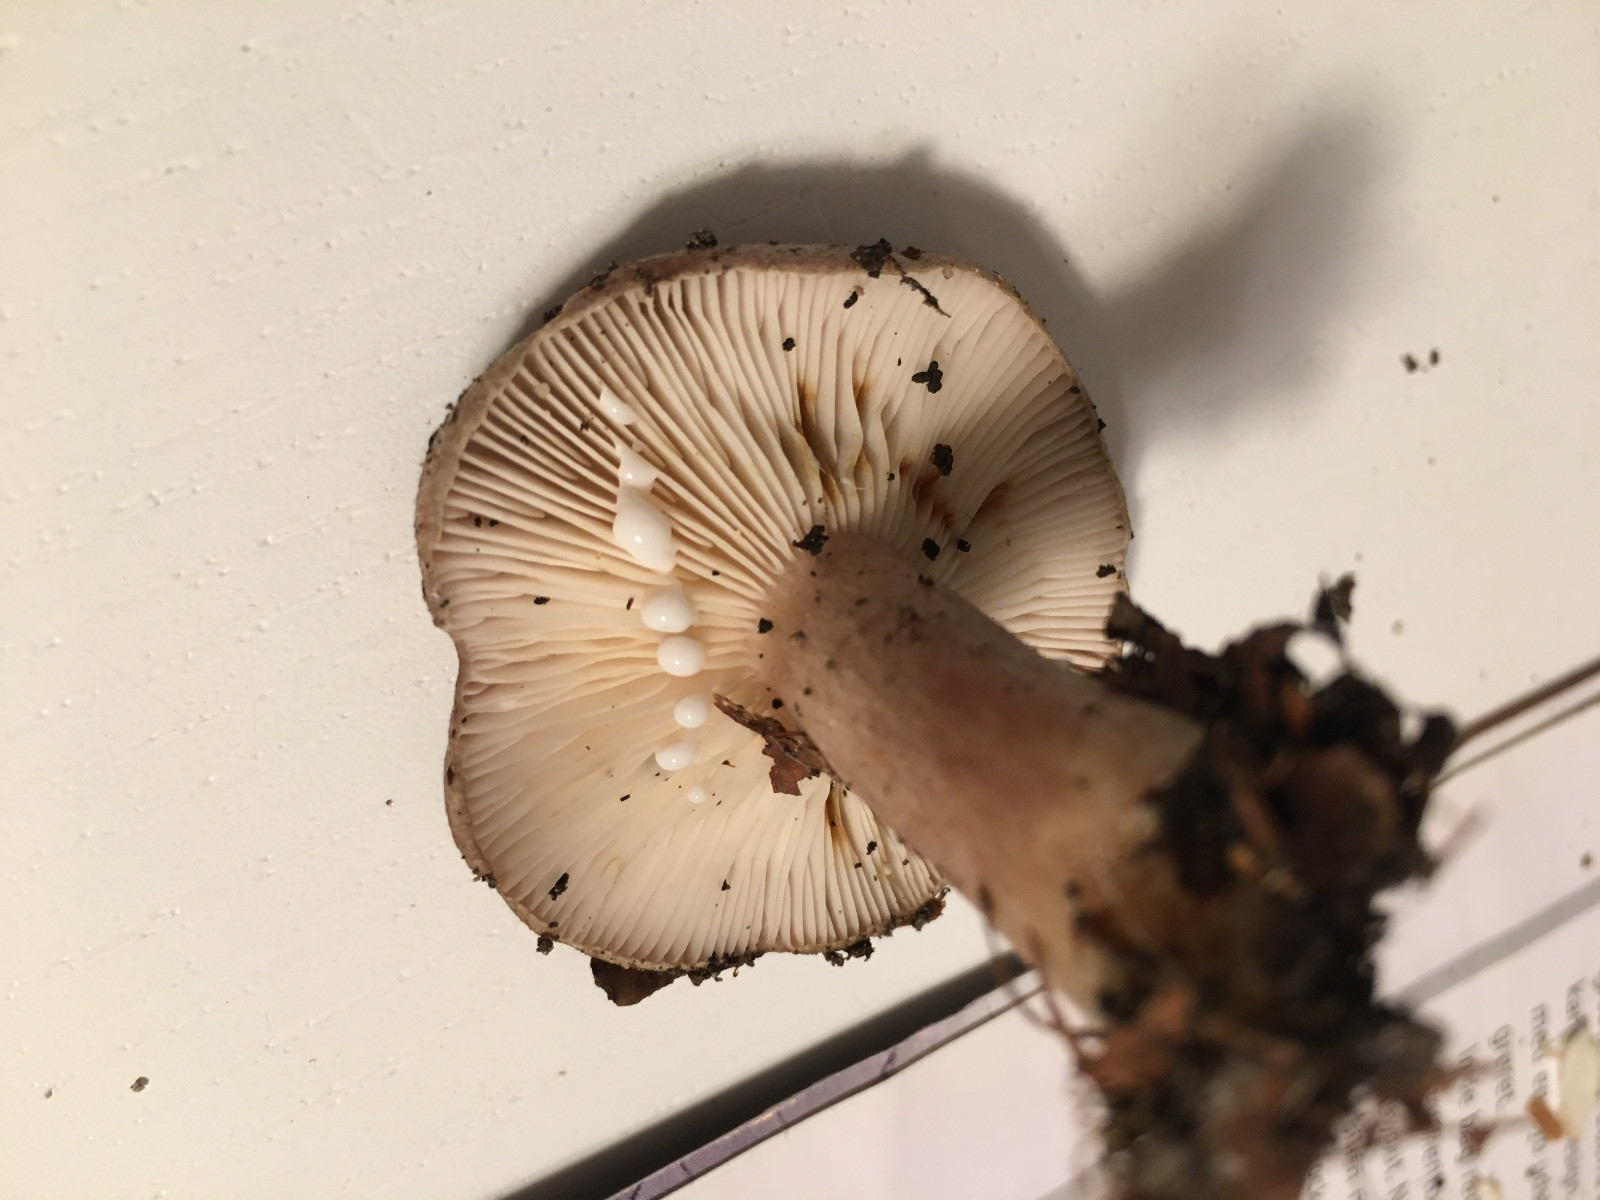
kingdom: Fungi
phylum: Basidiomycota
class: Agaricomycetes
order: Russulales
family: Russulaceae
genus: Lactarius
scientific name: Lactarius blennius
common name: dråbeplettet mælkehat
